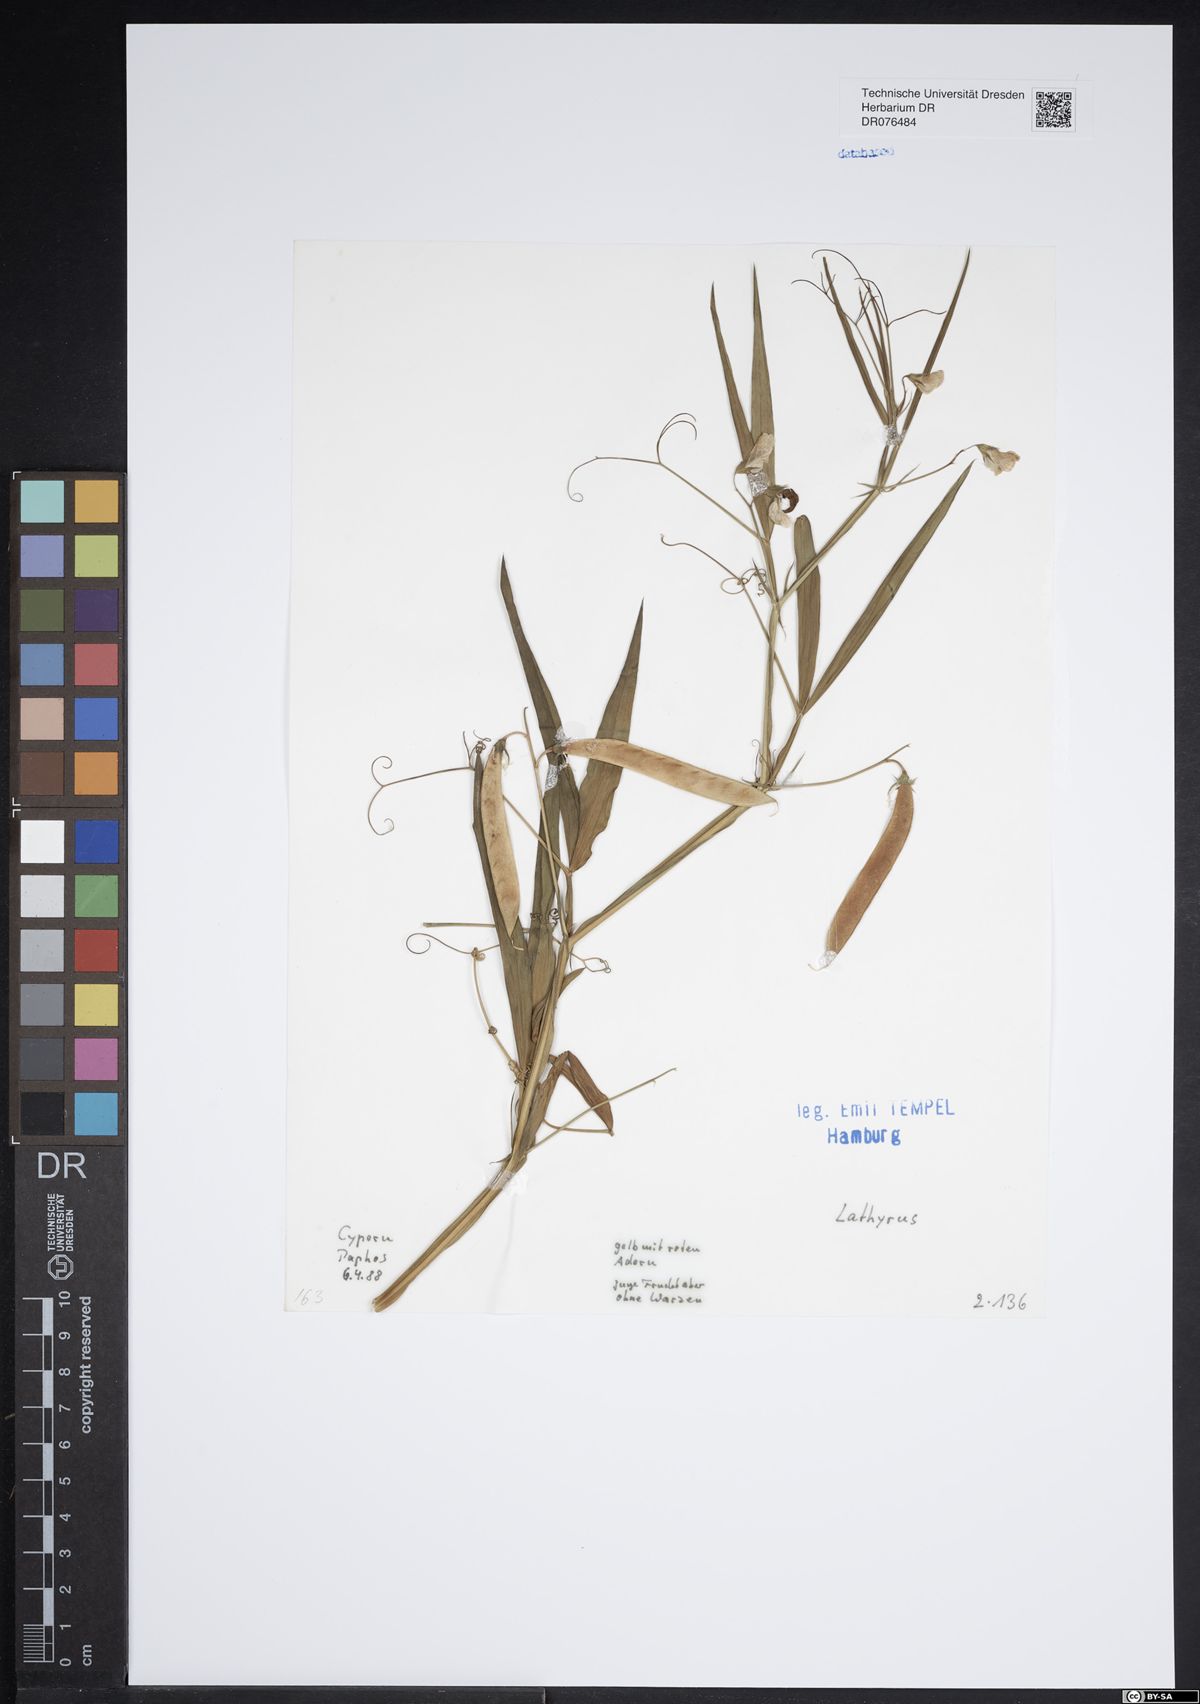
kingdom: Plantae
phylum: Tracheophyta
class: Magnoliopsida
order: Fabales
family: Fabaceae
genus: Lathyrus
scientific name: Lathyrus
